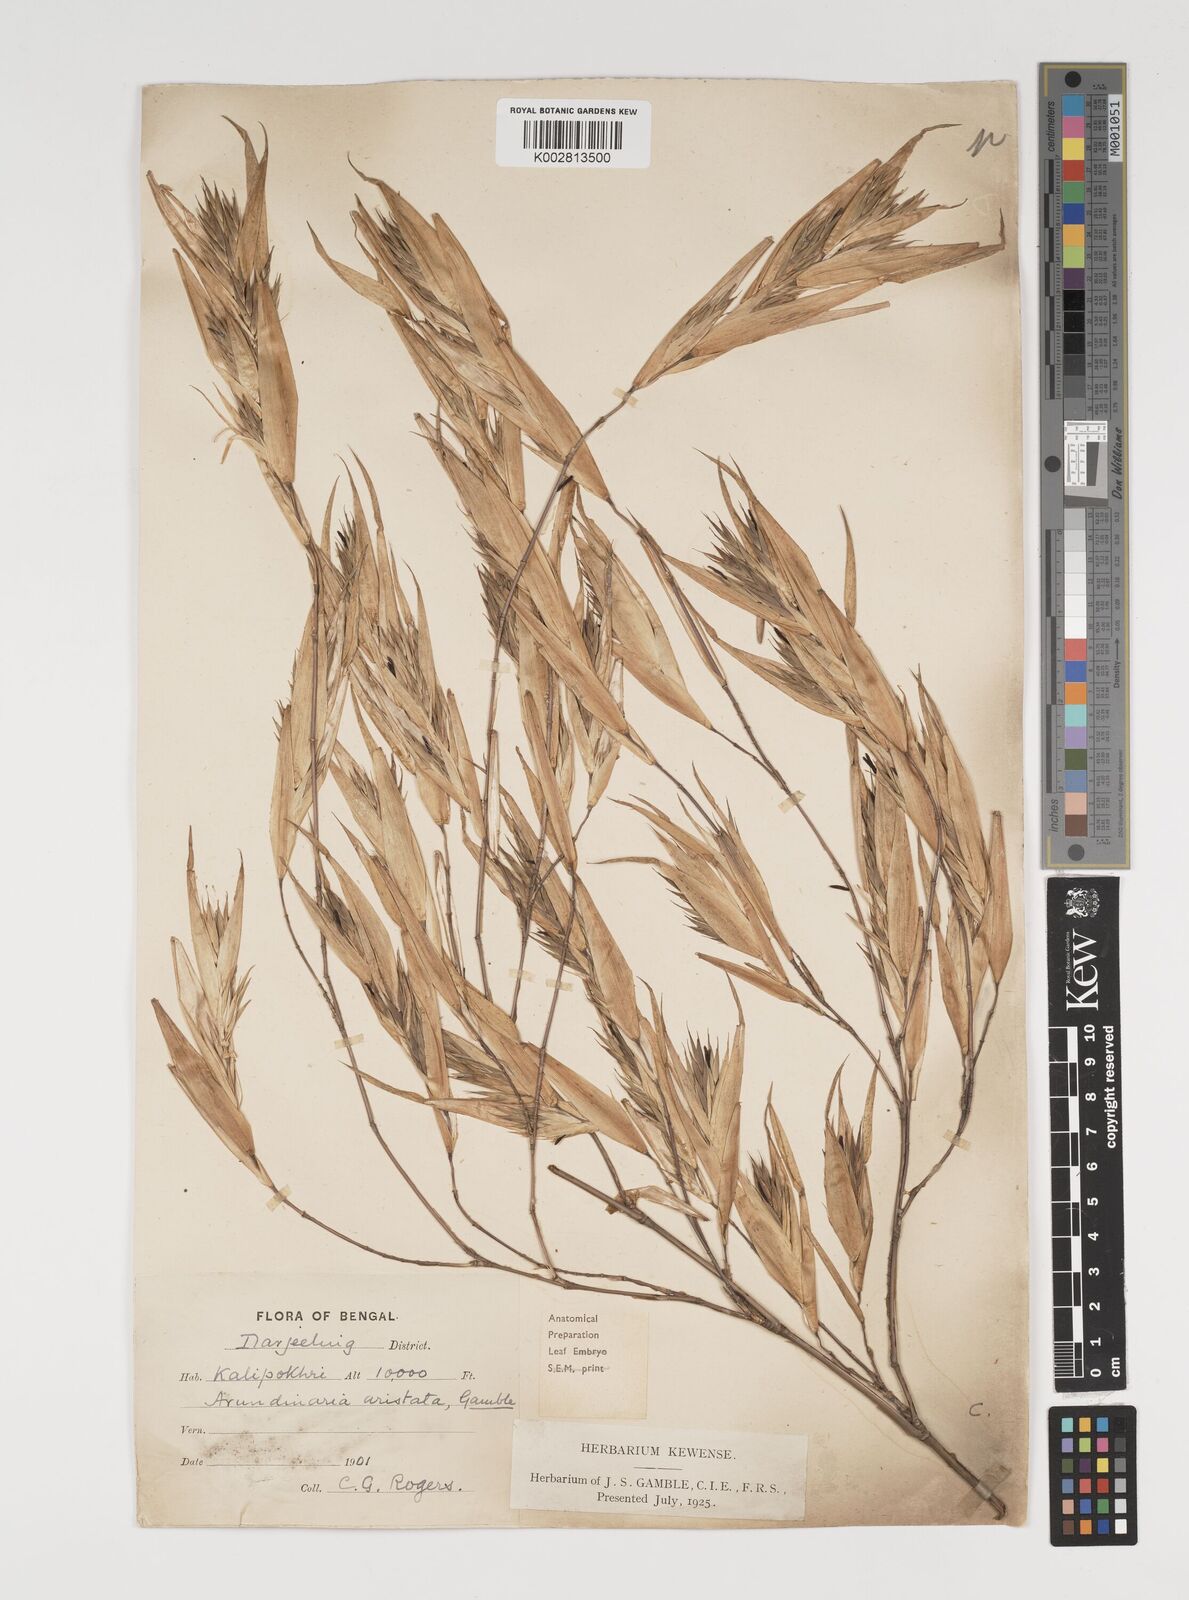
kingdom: Plantae
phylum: Tracheophyta
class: Liliopsida
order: Poales
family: Poaceae
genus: Thamnocalamus
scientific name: Thamnocalamus spathiflorus
